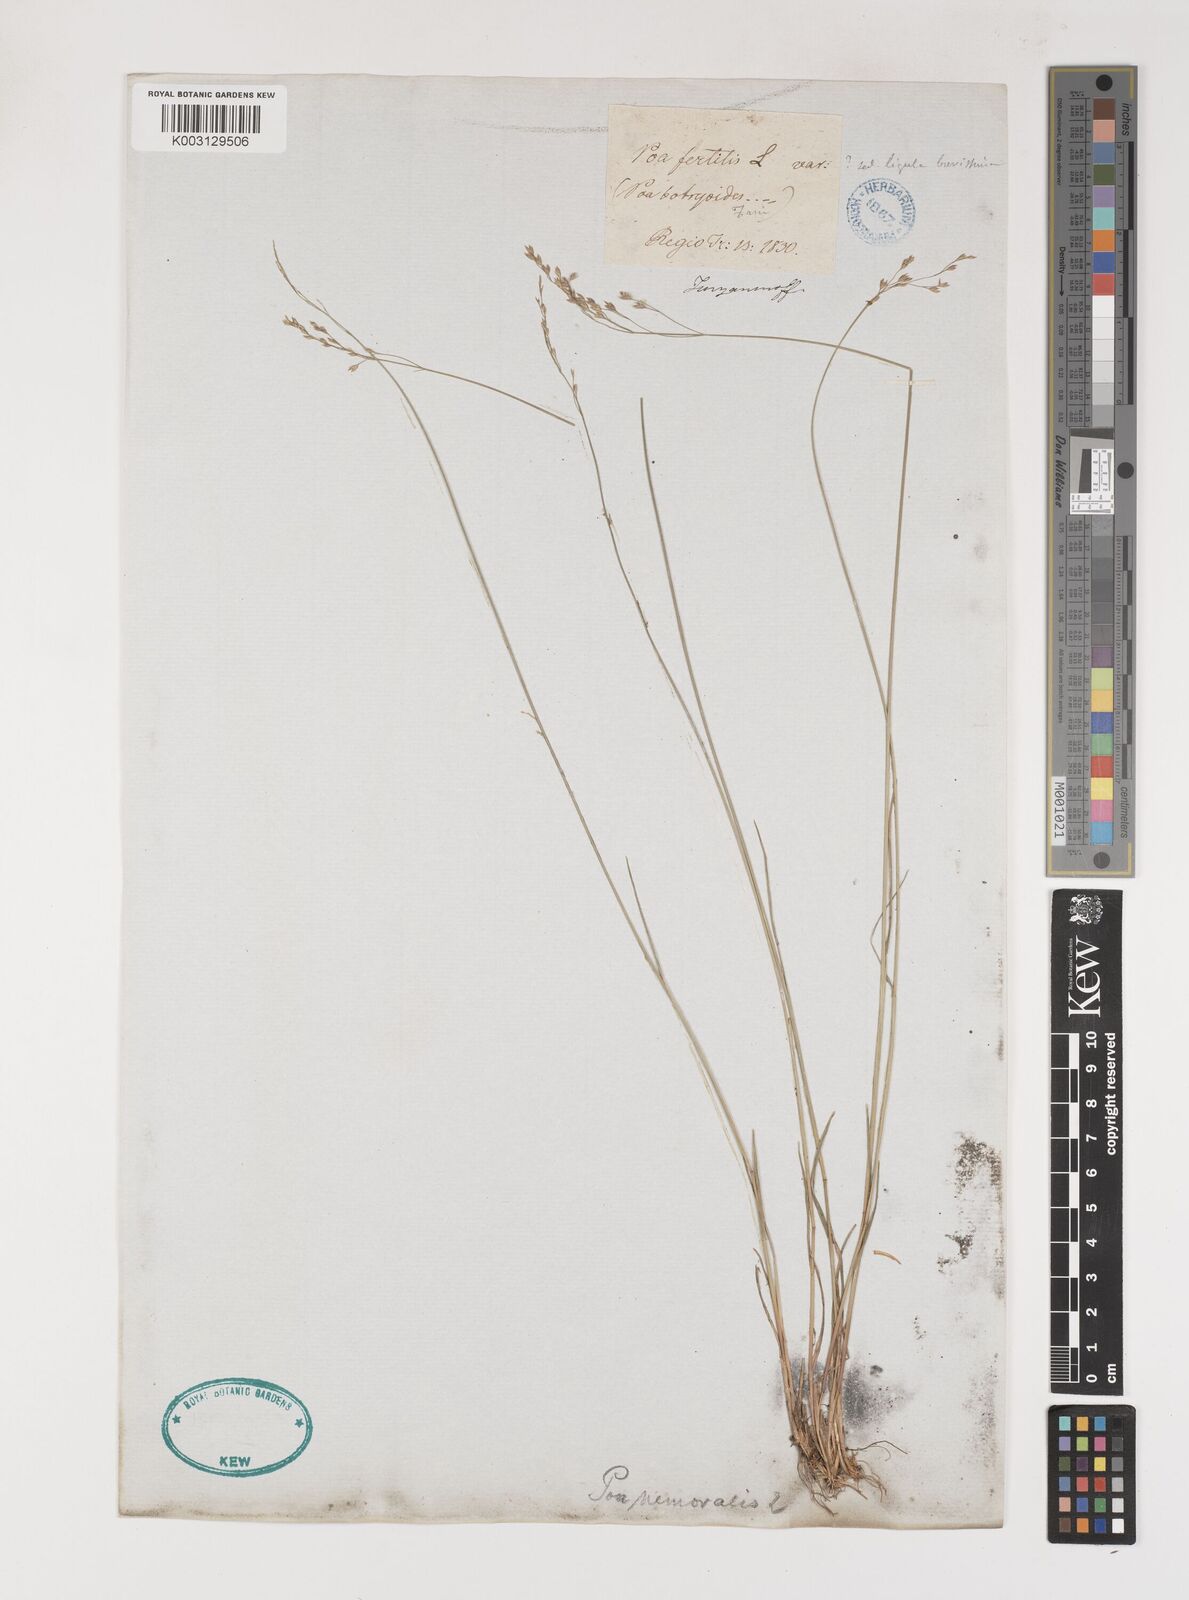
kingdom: Plantae
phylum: Tracheophyta
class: Liliopsida
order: Poales
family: Poaceae
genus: Poa
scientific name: Poa
